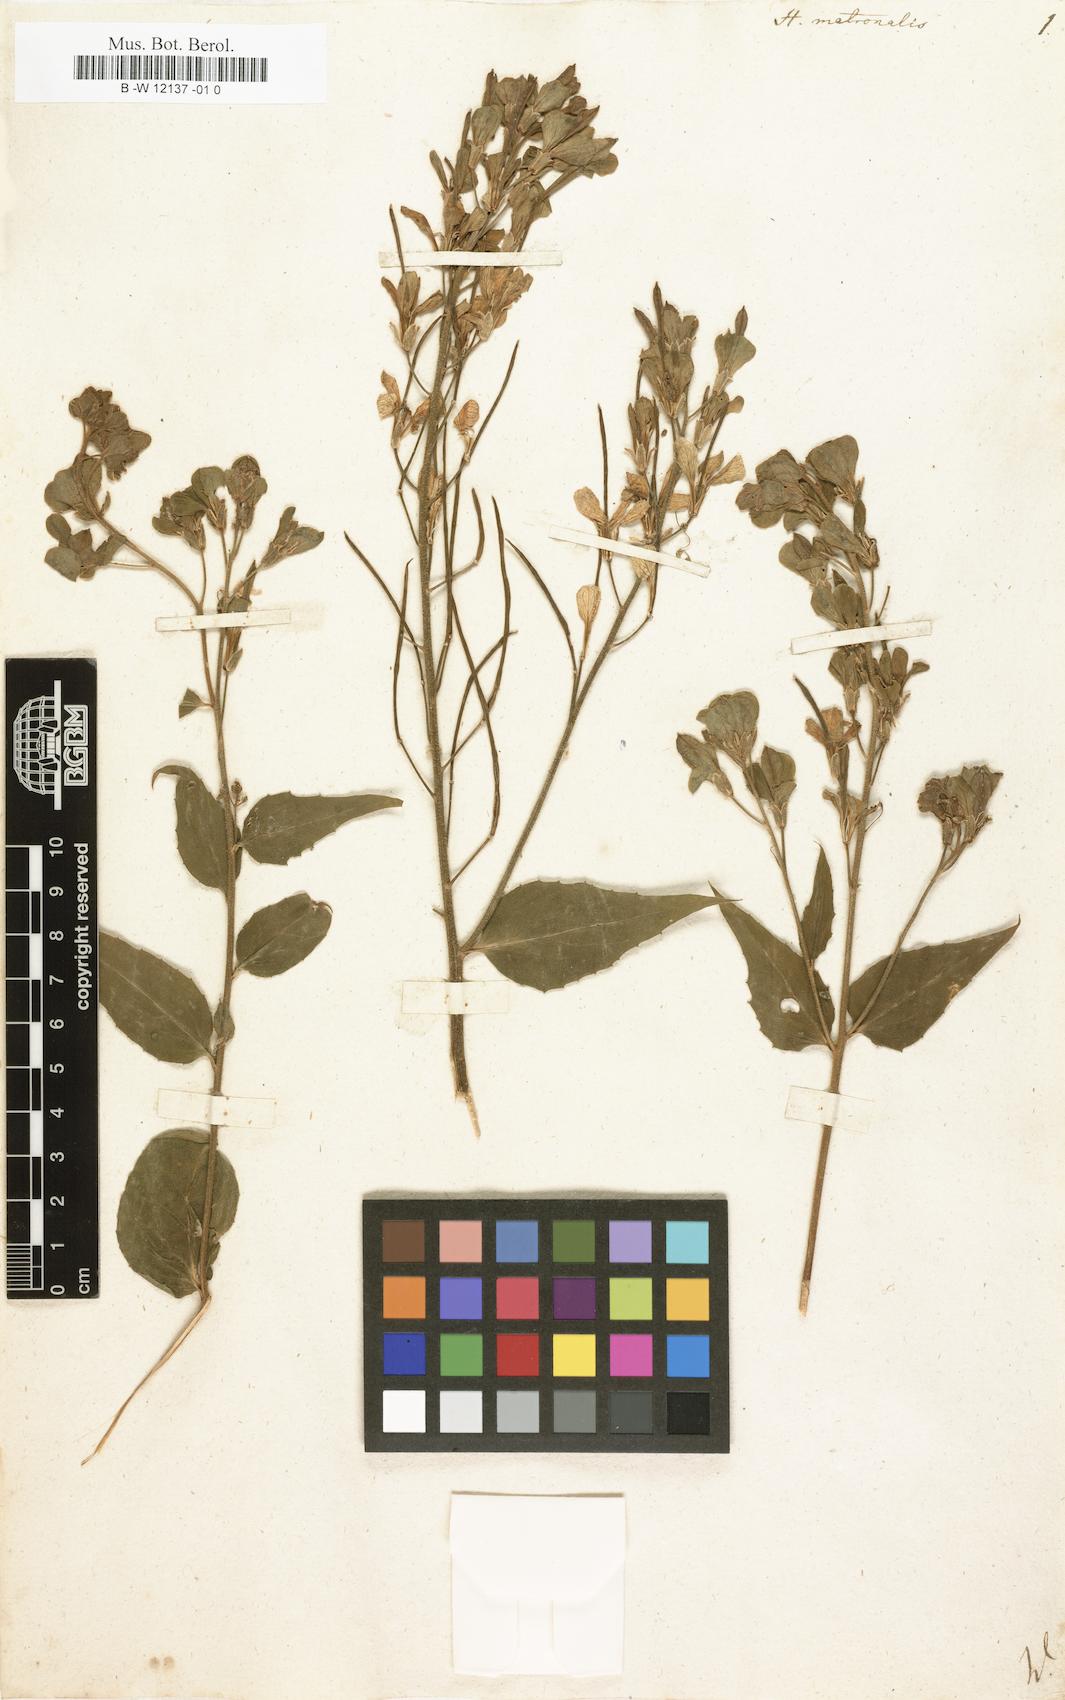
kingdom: Plantae
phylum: Tracheophyta
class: Magnoliopsida
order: Brassicales
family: Brassicaceae
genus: Hesperis
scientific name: Hesperis matronalis
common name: Dame's-violet
